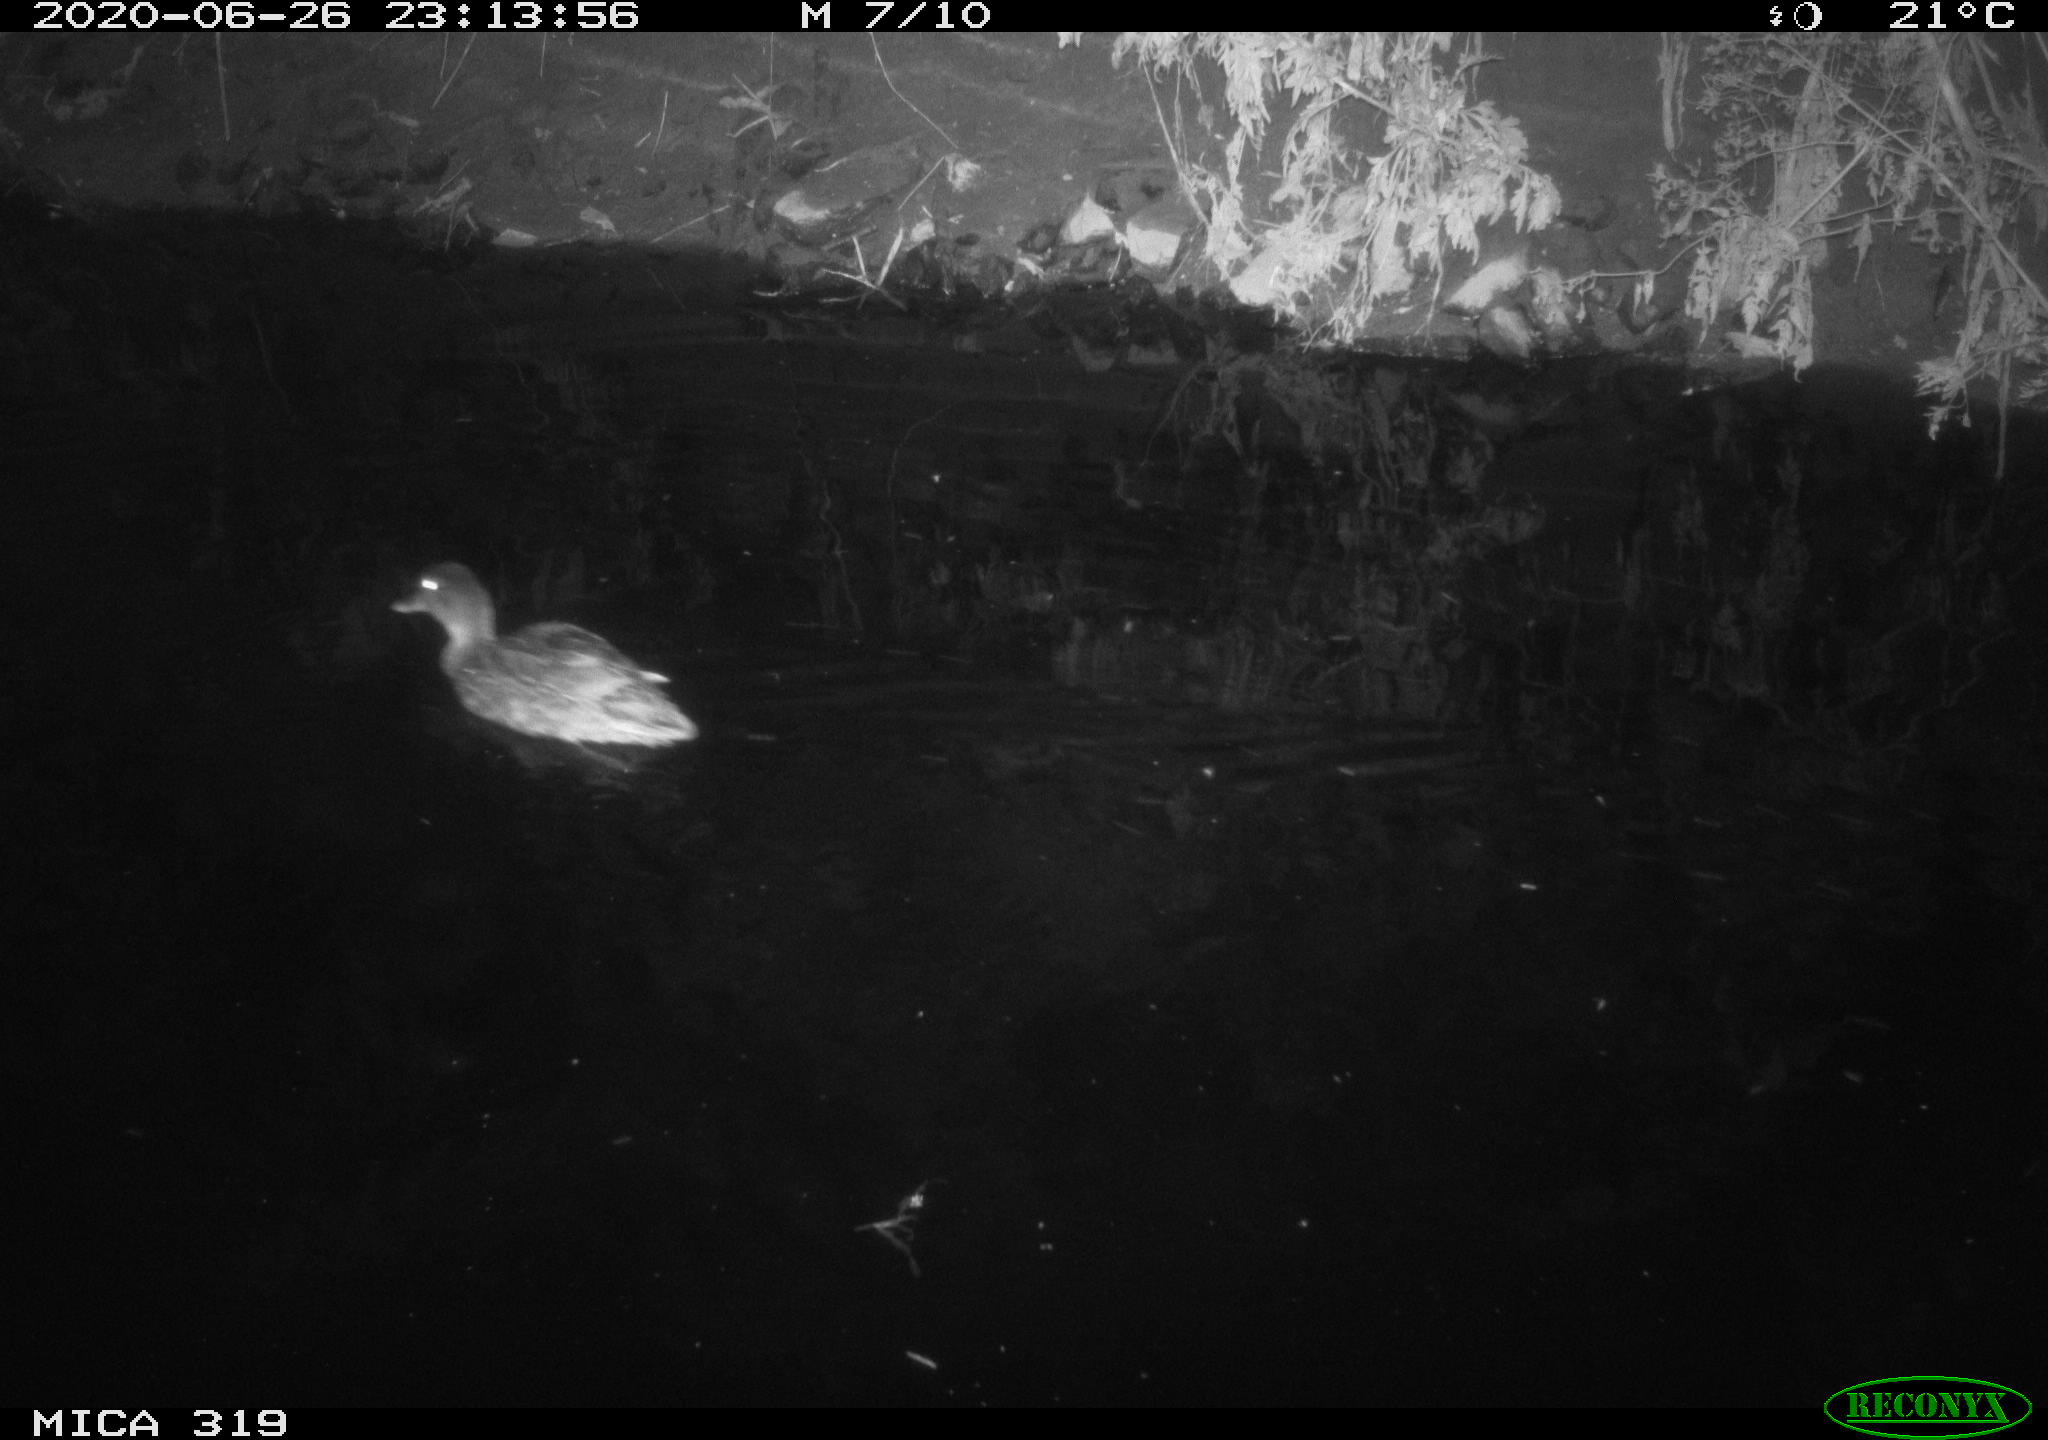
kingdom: Animalia
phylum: Chordata
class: Aves
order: Anseriformes
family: Anatidae
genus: Anas
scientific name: Anas platyrhynchos
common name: Mallard
